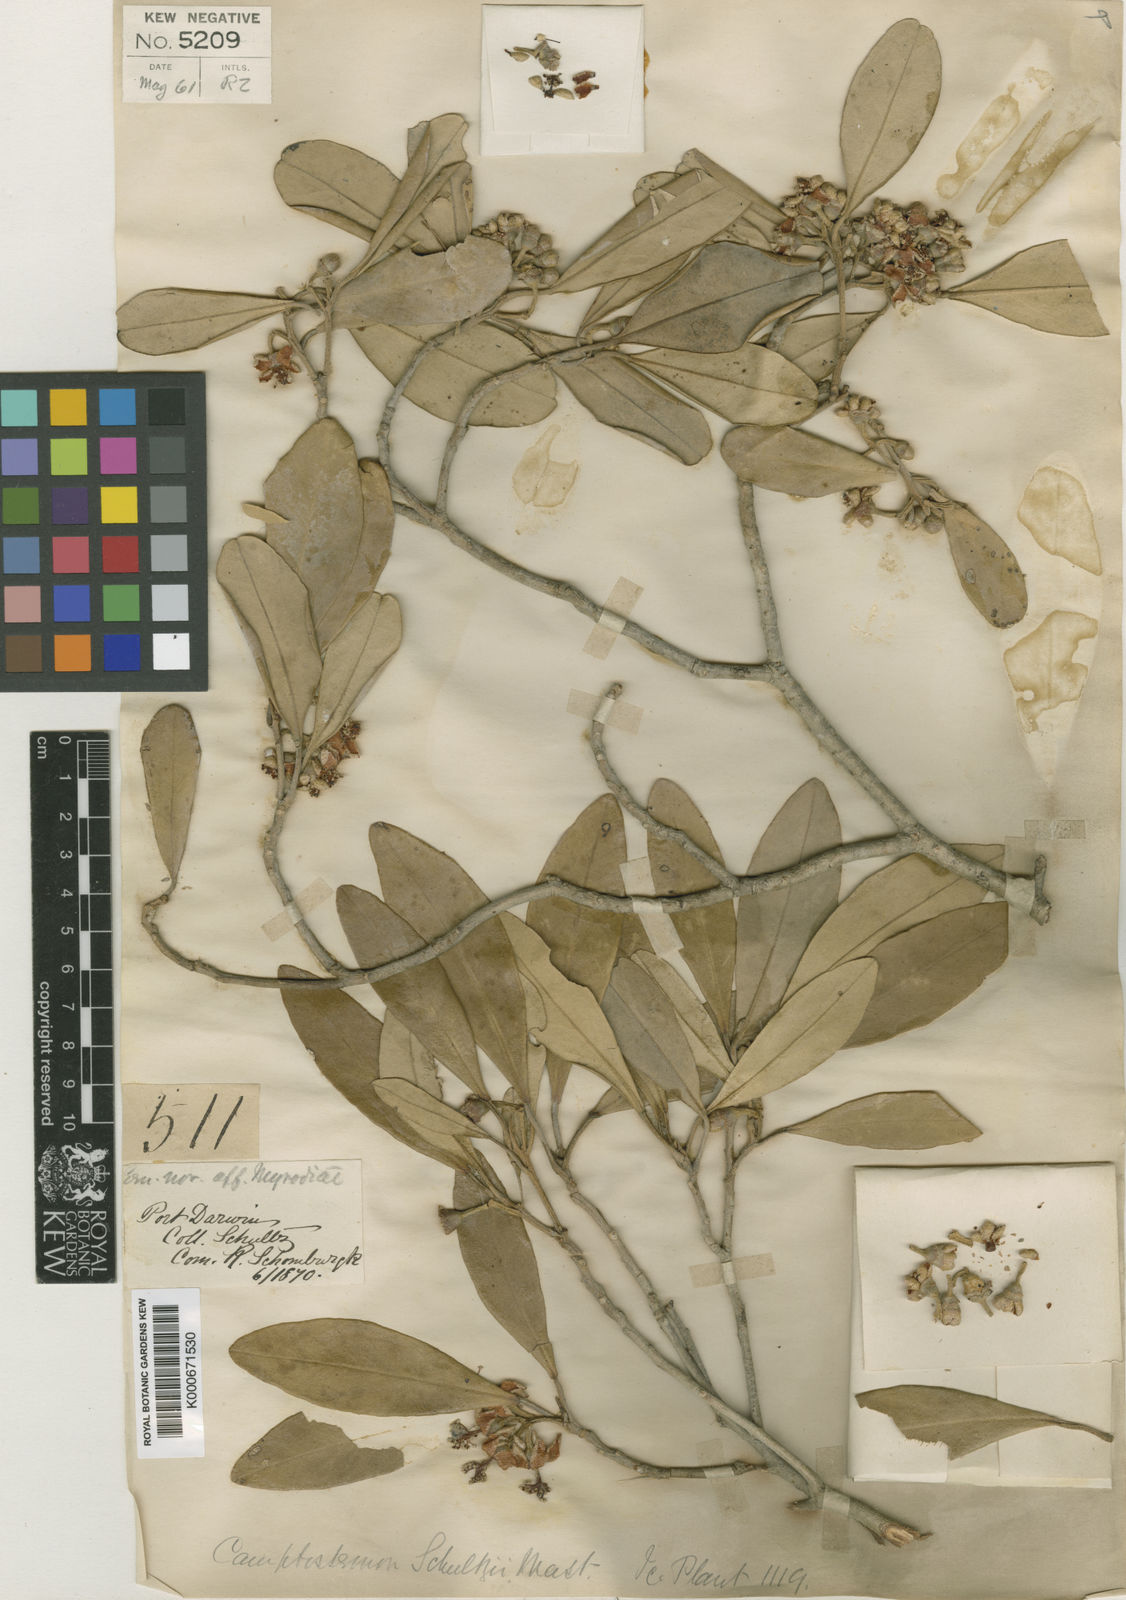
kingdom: Plantae
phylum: Tracheophyta
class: Magnoliopsida
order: Malvales
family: Malvaceae
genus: Camptostemon
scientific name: Camptostemon schultzii
